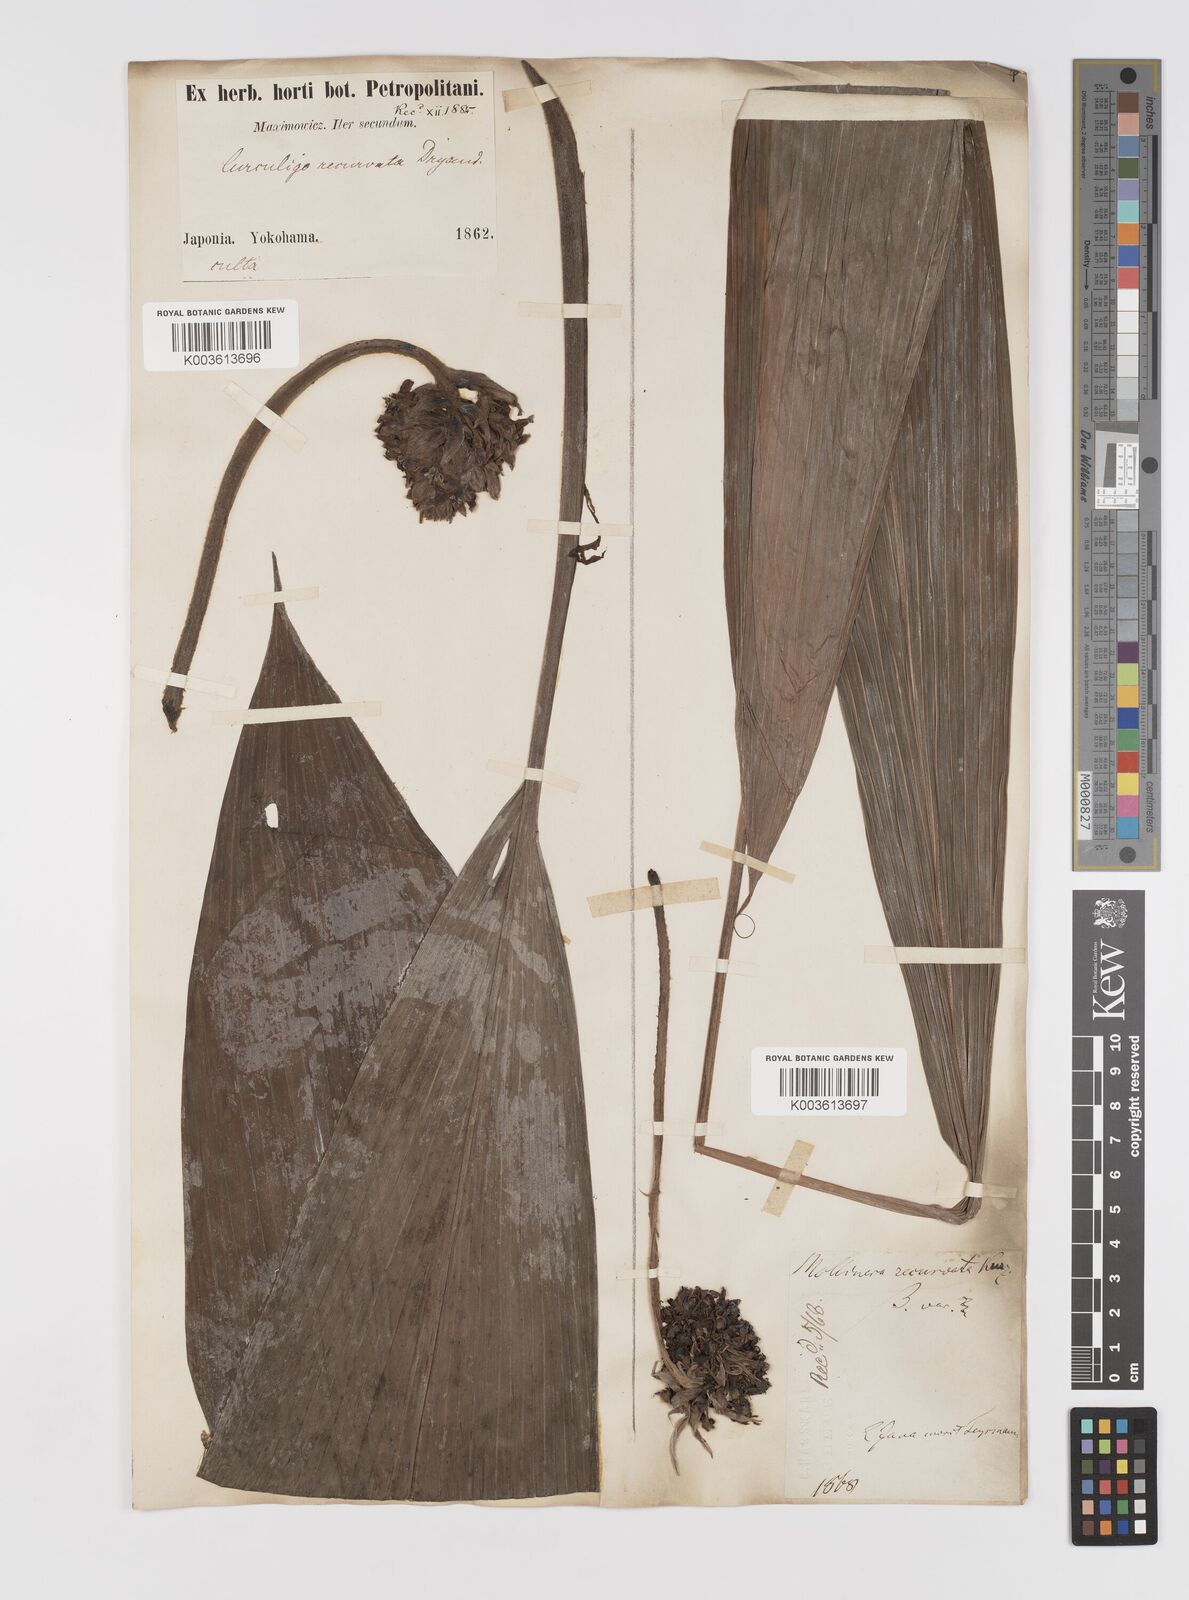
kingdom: Plantae
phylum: Tracheophyta
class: Liliopsida
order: Asparagales
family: Hypoxidaceae
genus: Curculigo
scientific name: Curculigo capitulata
